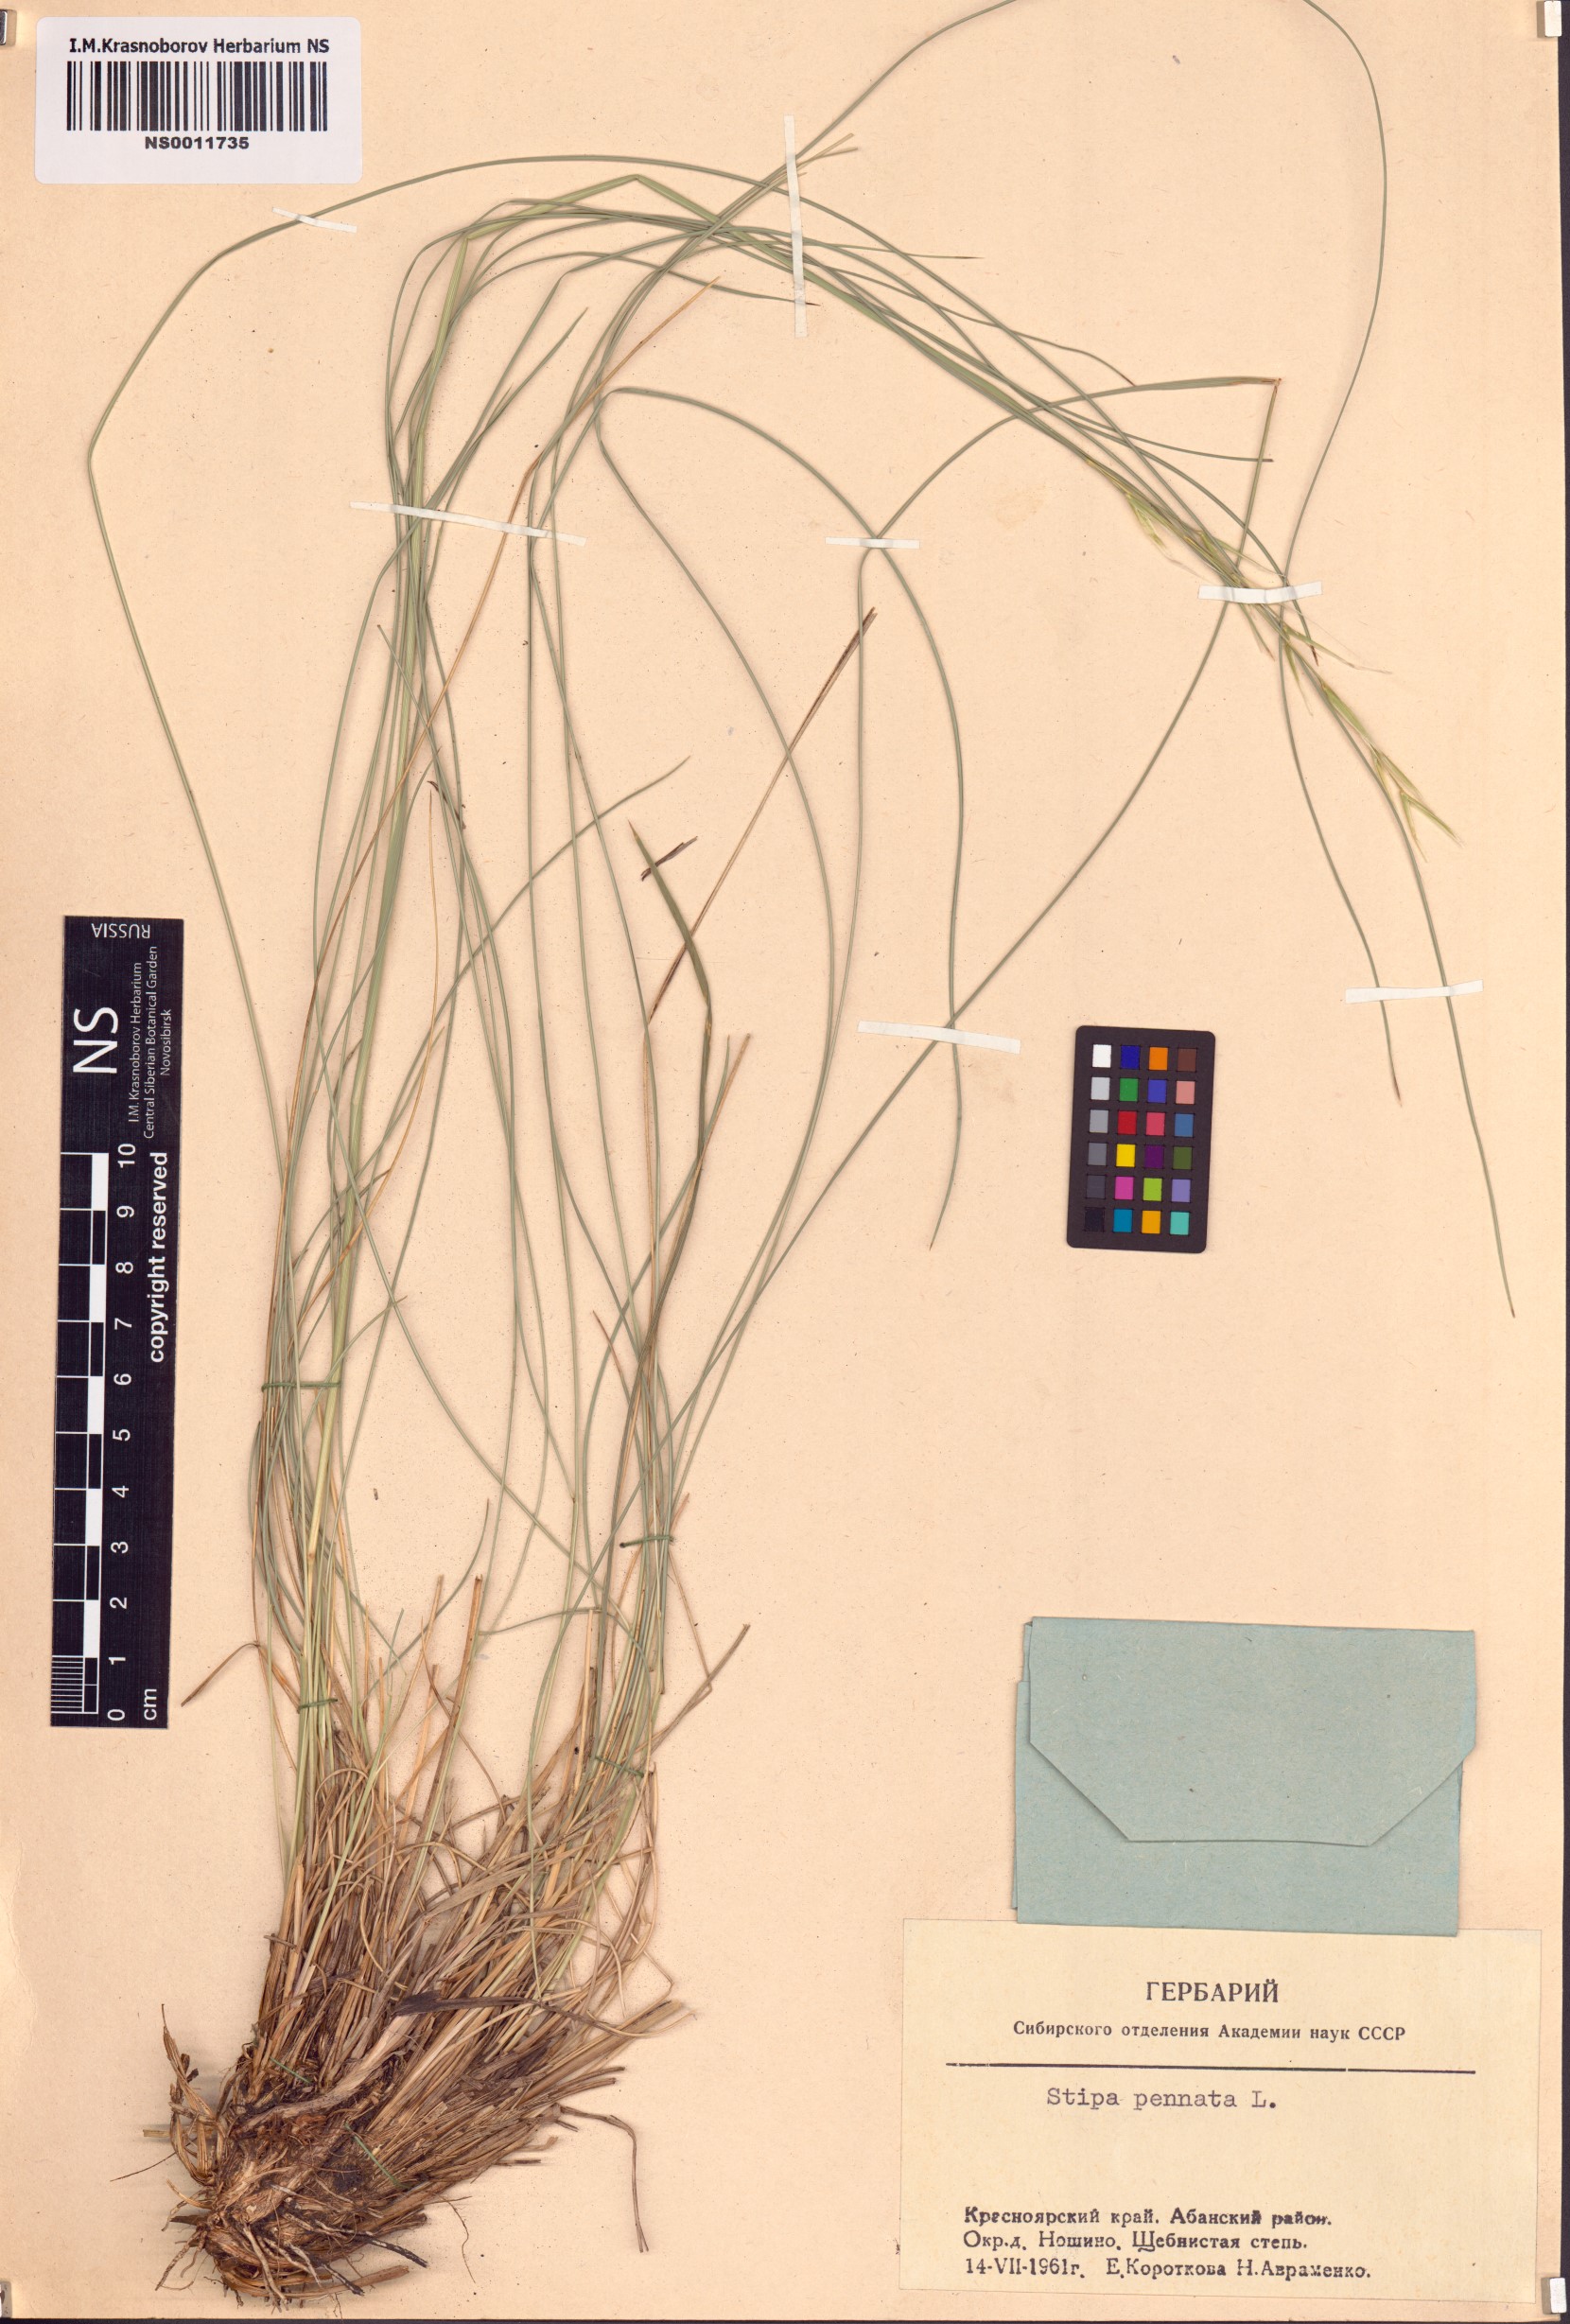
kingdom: Plantae
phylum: Tracheophyta
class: Liliopsida
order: Poales
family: Poaceae
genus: Stipa
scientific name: Stipa pennata
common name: European feather grass
